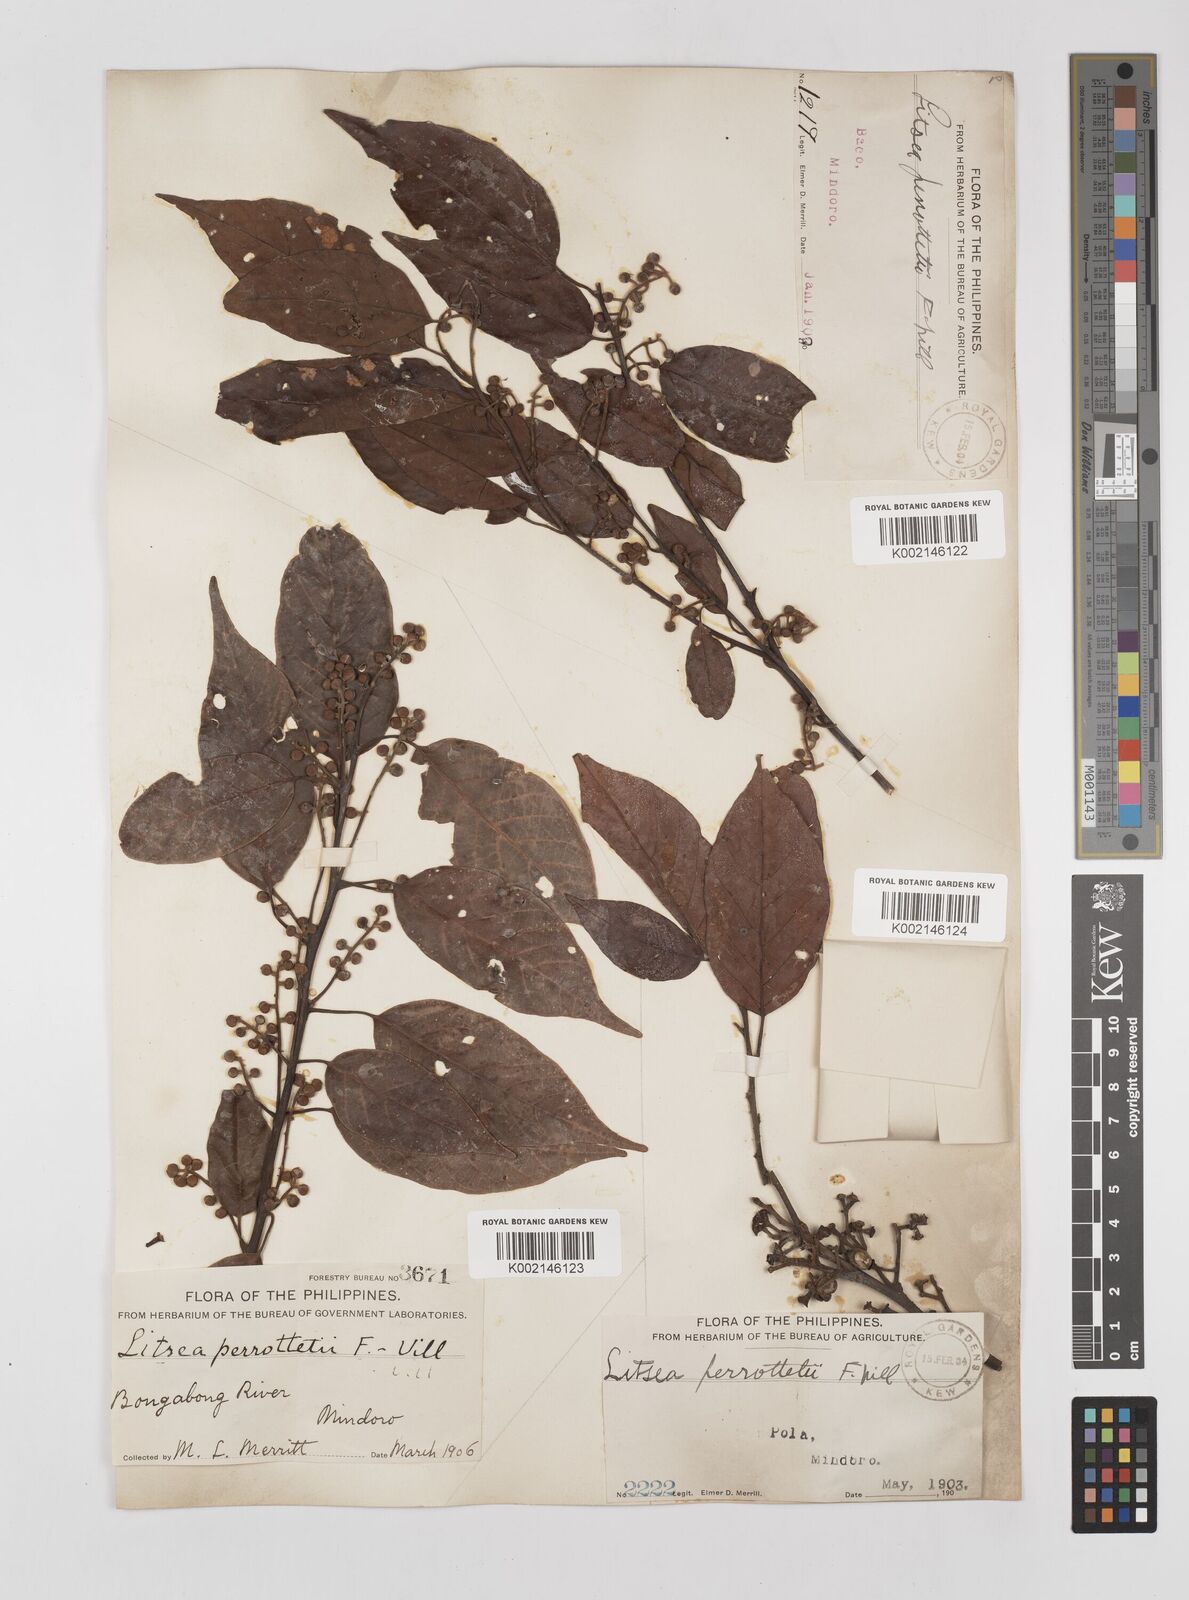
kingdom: Plantae
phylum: Tracheophyta
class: Magnoliopsida
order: Laurales
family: Lauraceae
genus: Litsea
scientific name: Litsea cordata
